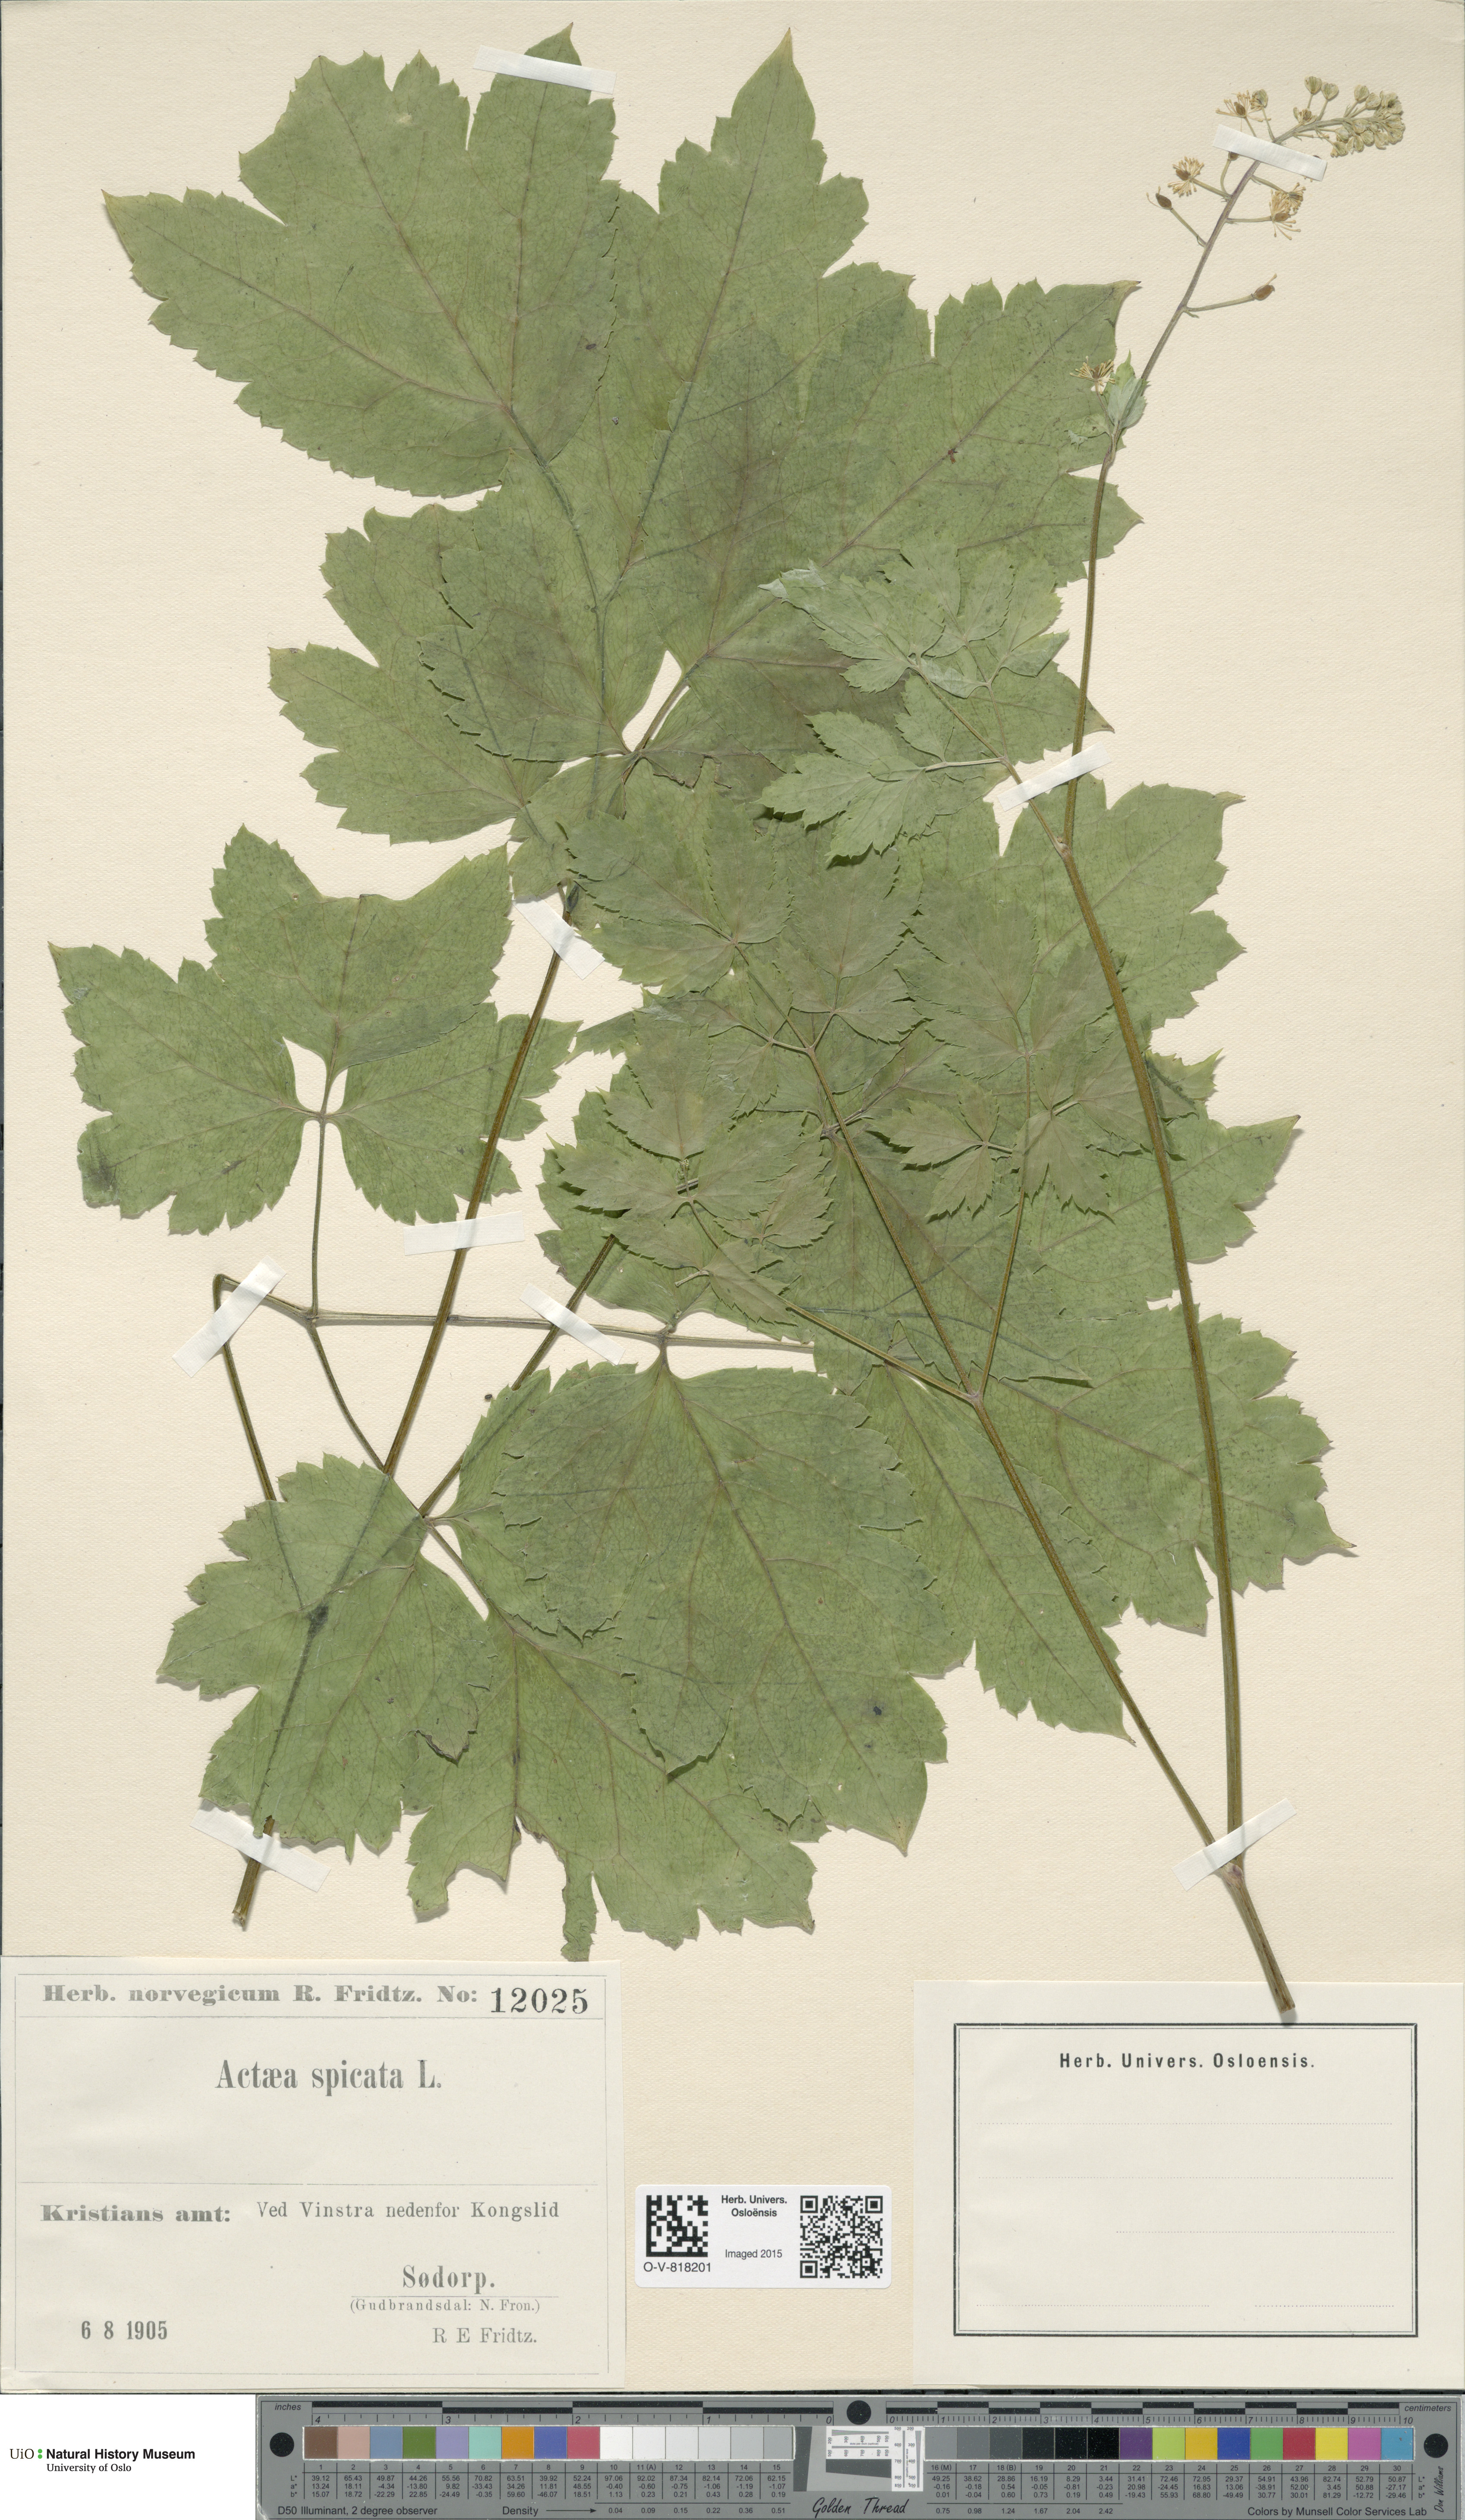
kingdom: Plantae
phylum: Tracheophyta
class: Magnoliopsida
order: Ranunculales
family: Ranunculaceae
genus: Actaea
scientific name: Actaea spicata
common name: Baneberry
